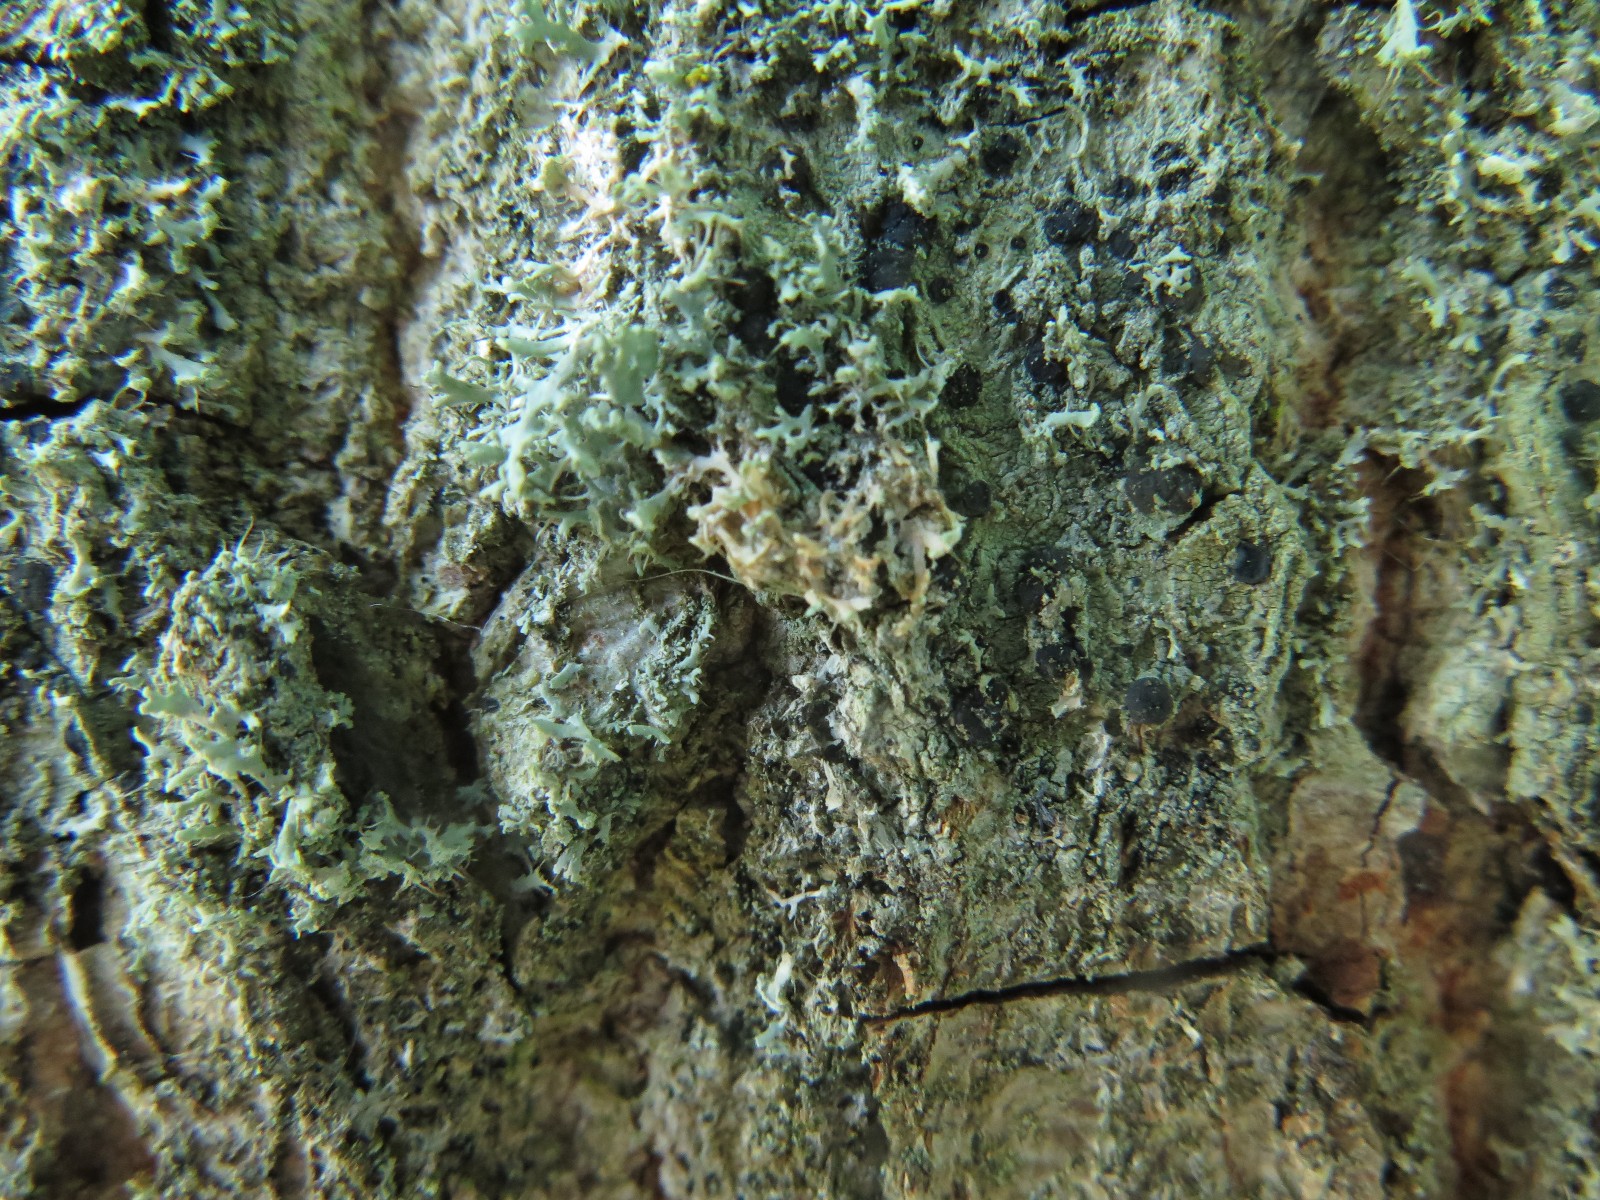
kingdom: Fungi
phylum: Basidiomycota
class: Agaricomycetes
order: Corticiales
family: Corticiaceae
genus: Erythricium
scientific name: Erythricium aurantiacum
